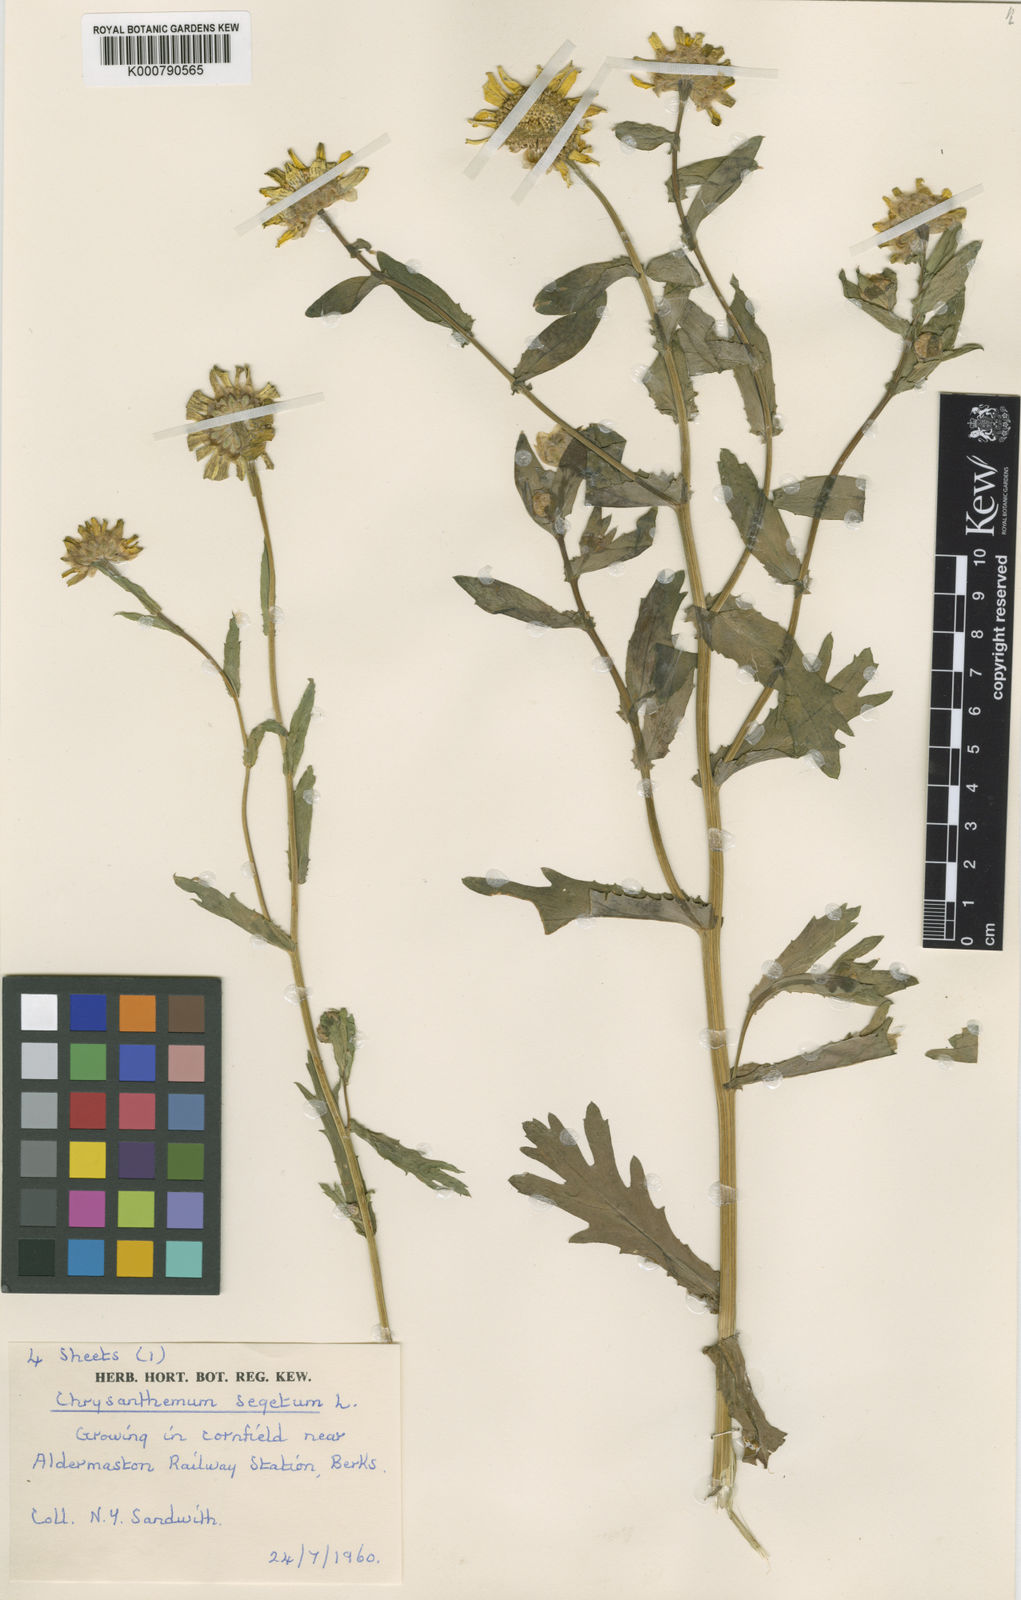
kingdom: Plantae
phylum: Tracheophyta
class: Magnoliopsida
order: Asterales
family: Asteraceae
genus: Glebionis
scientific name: Glebionis
